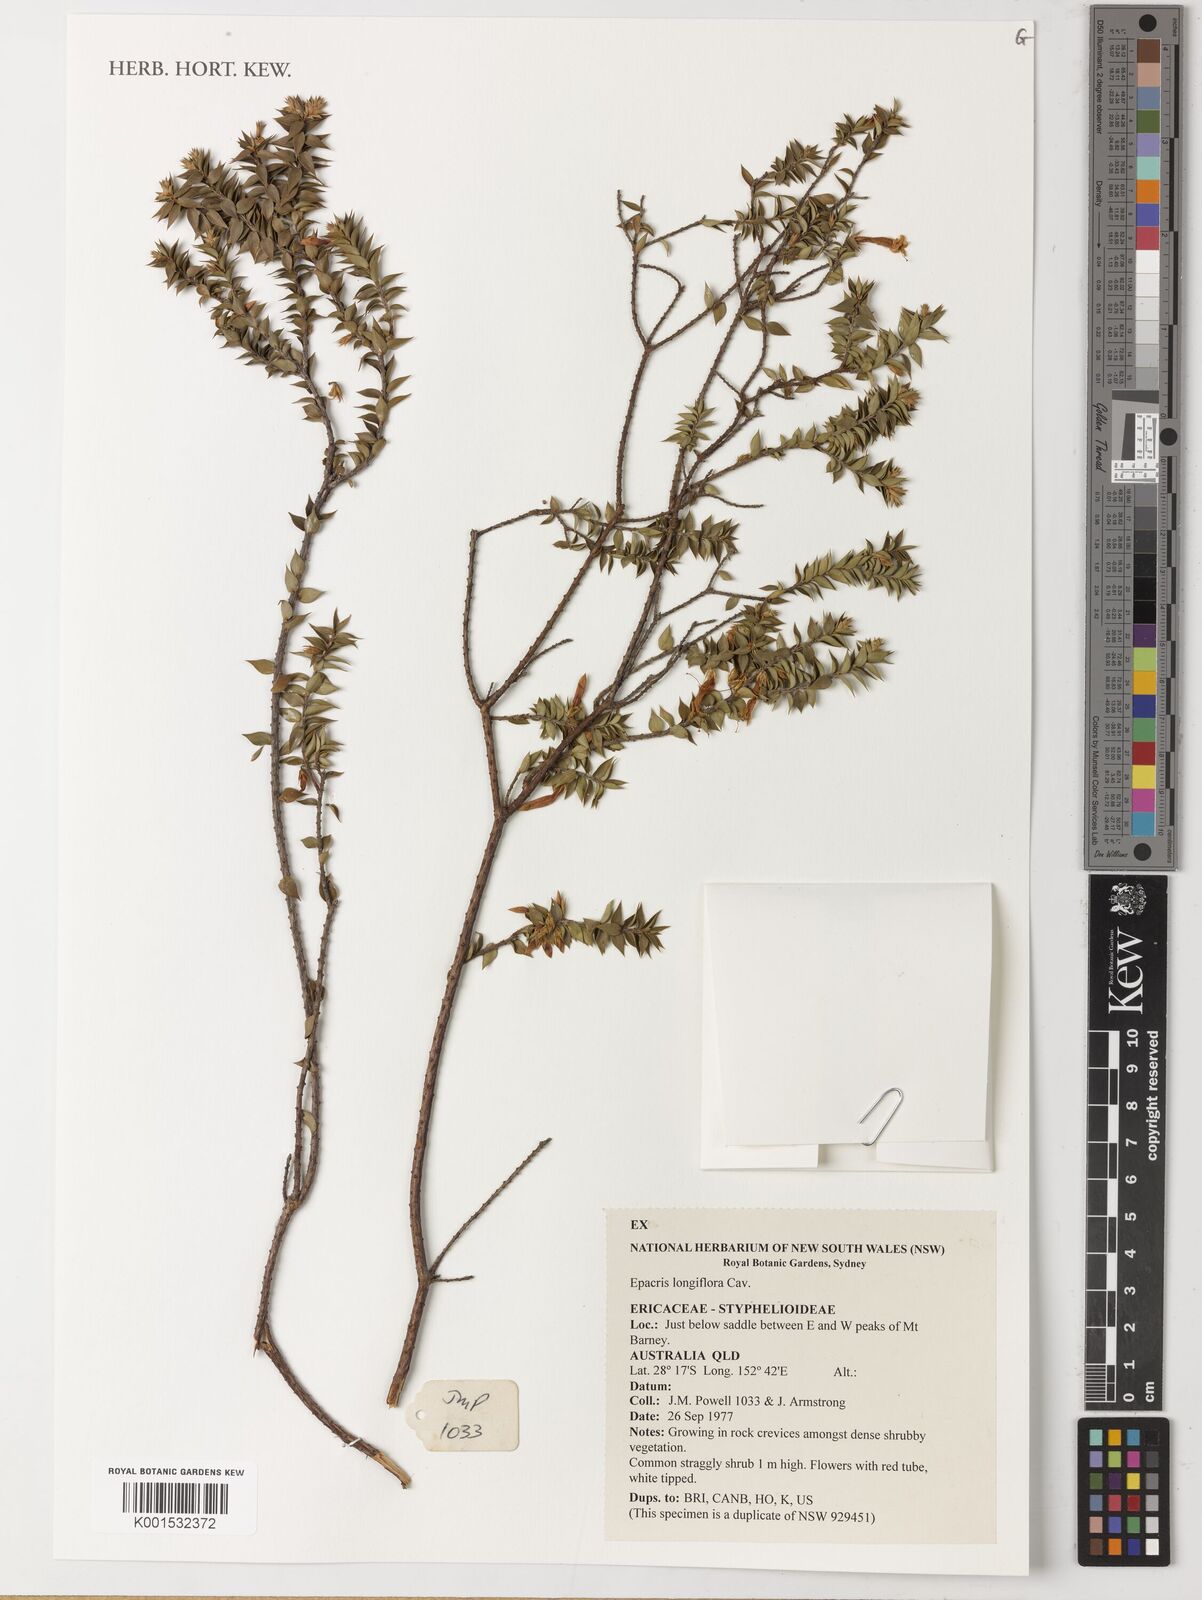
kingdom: Plantae
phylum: Tracheophyta
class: Magnoliopsida
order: Ericales
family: Ericaceae
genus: Epacris
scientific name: Epacris longiflora
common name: Fuchsia-heath
